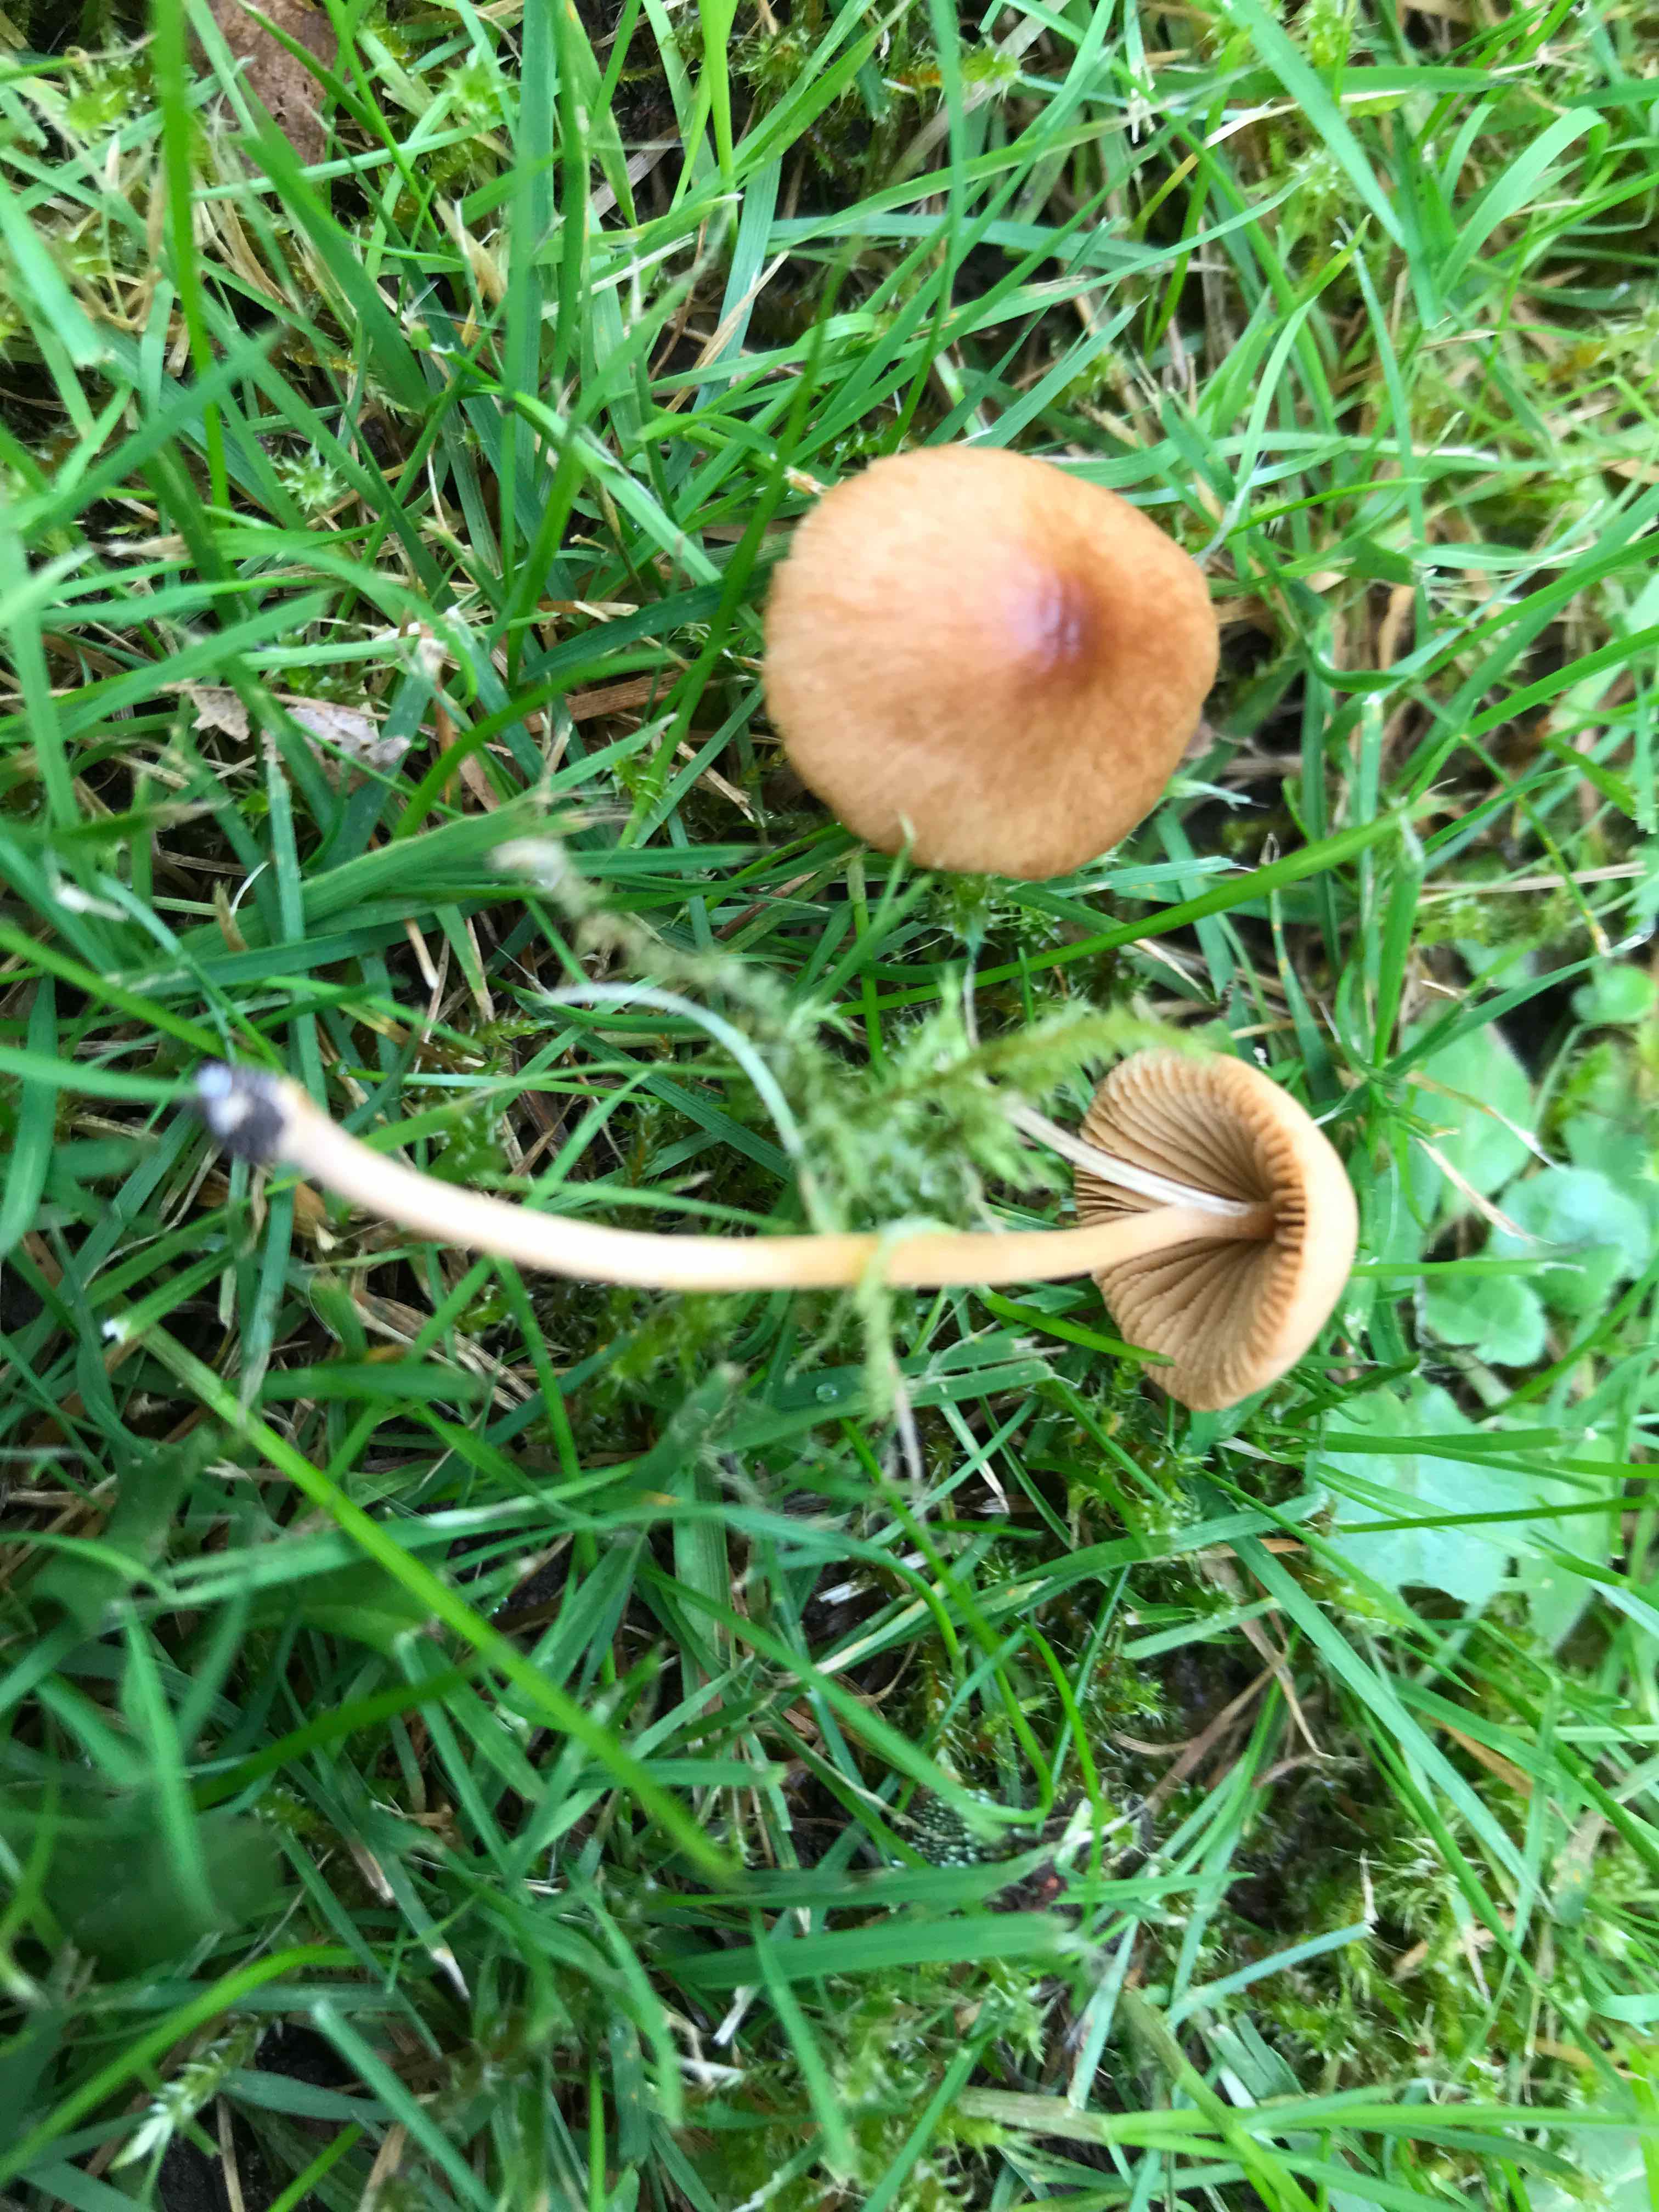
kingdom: Fungi
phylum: Basidiomycota
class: Agaricomycetes
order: Agaricales
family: Bolbitiaceae
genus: Conocybe
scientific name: Conocybe
